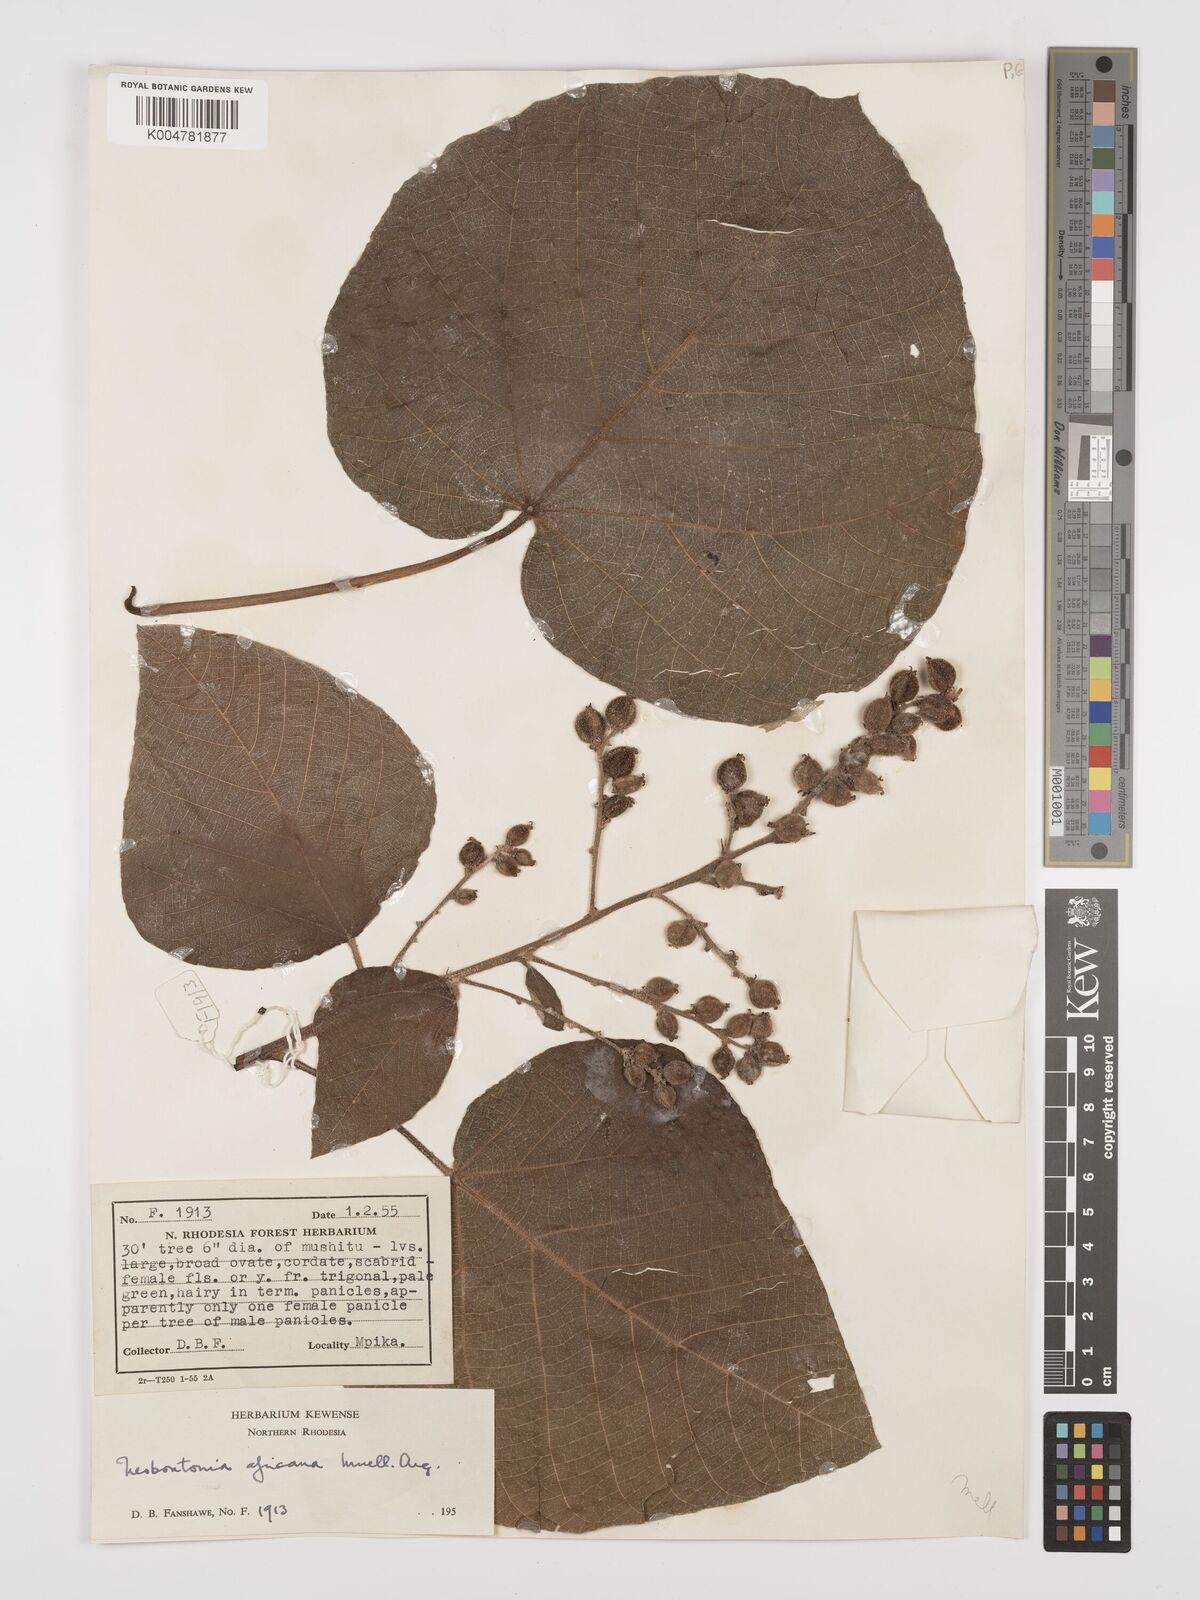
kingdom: Plantae
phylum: Tracheophyta
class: Magnoliopsida
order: Malpighiales
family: Euphorbiaceae
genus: Neoboutonia
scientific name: Neoboutonia melleri
